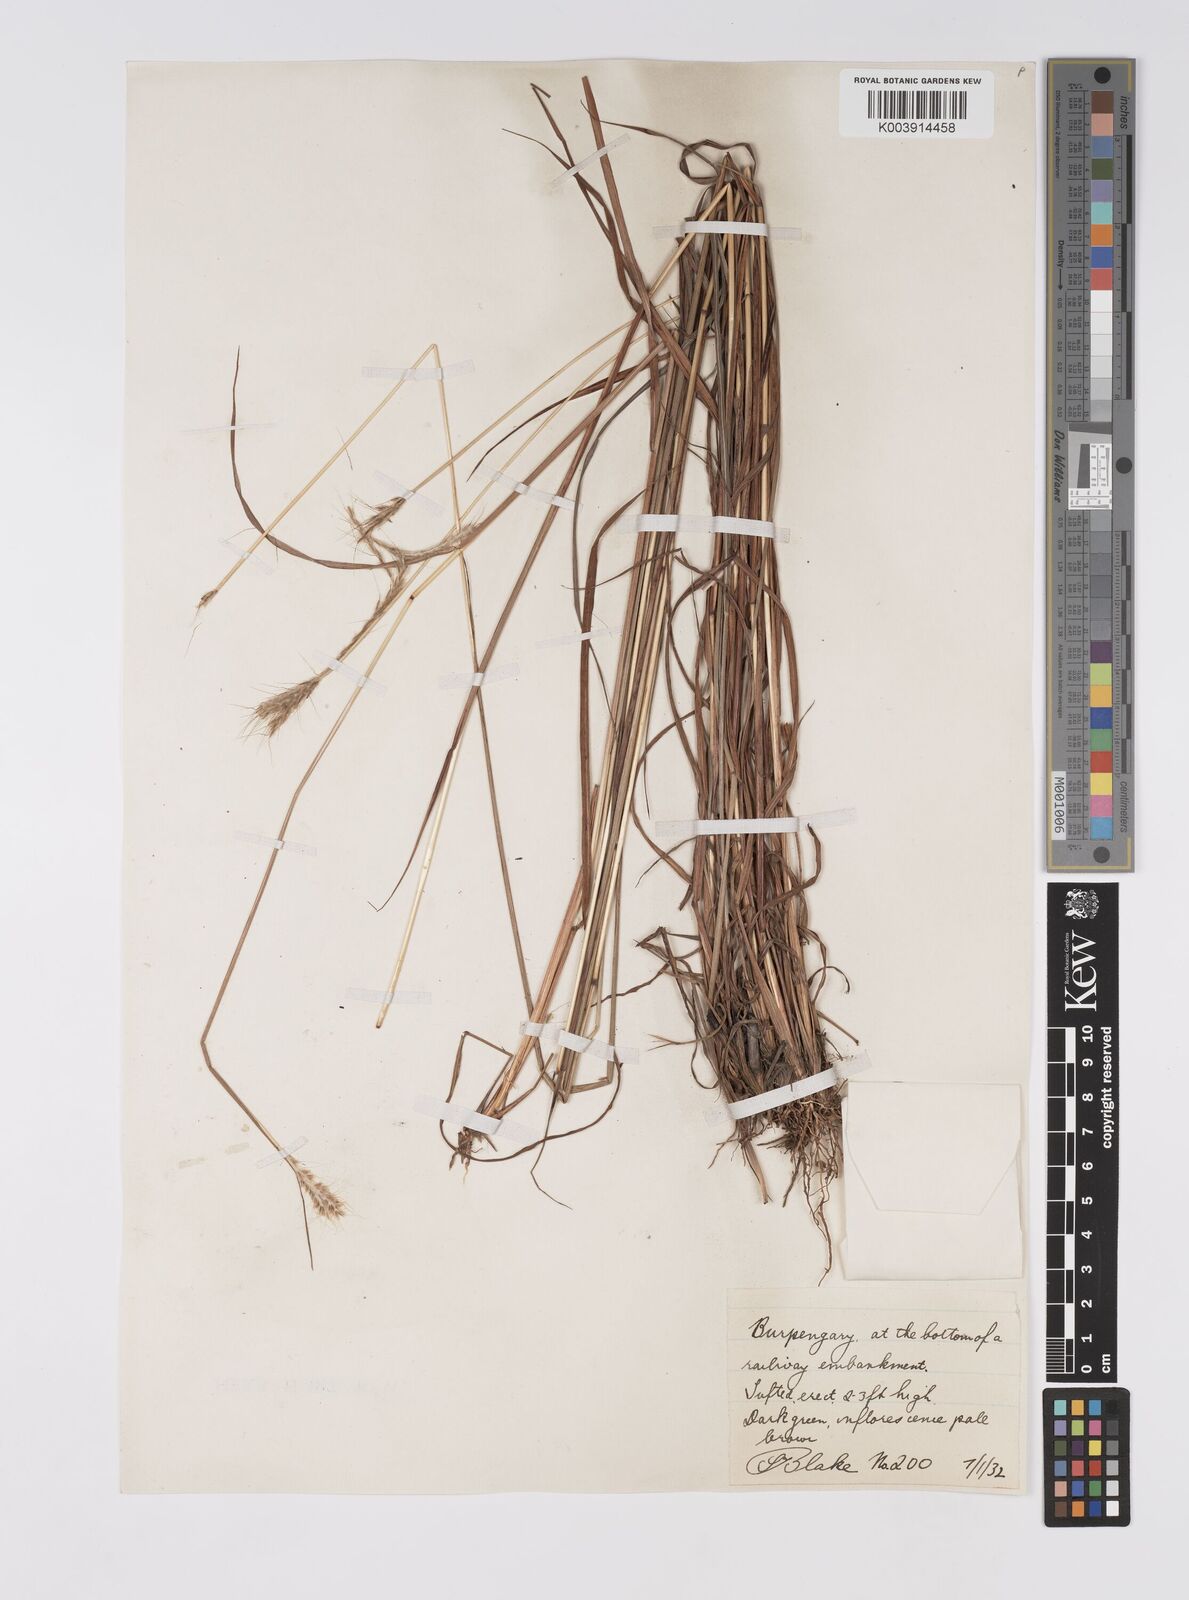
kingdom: Plantae
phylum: Tracheophyta
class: Liliopsida
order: Poales
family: Poaceae
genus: Pseudopogonatherum
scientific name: Pseudopogonatherum trispicatum
